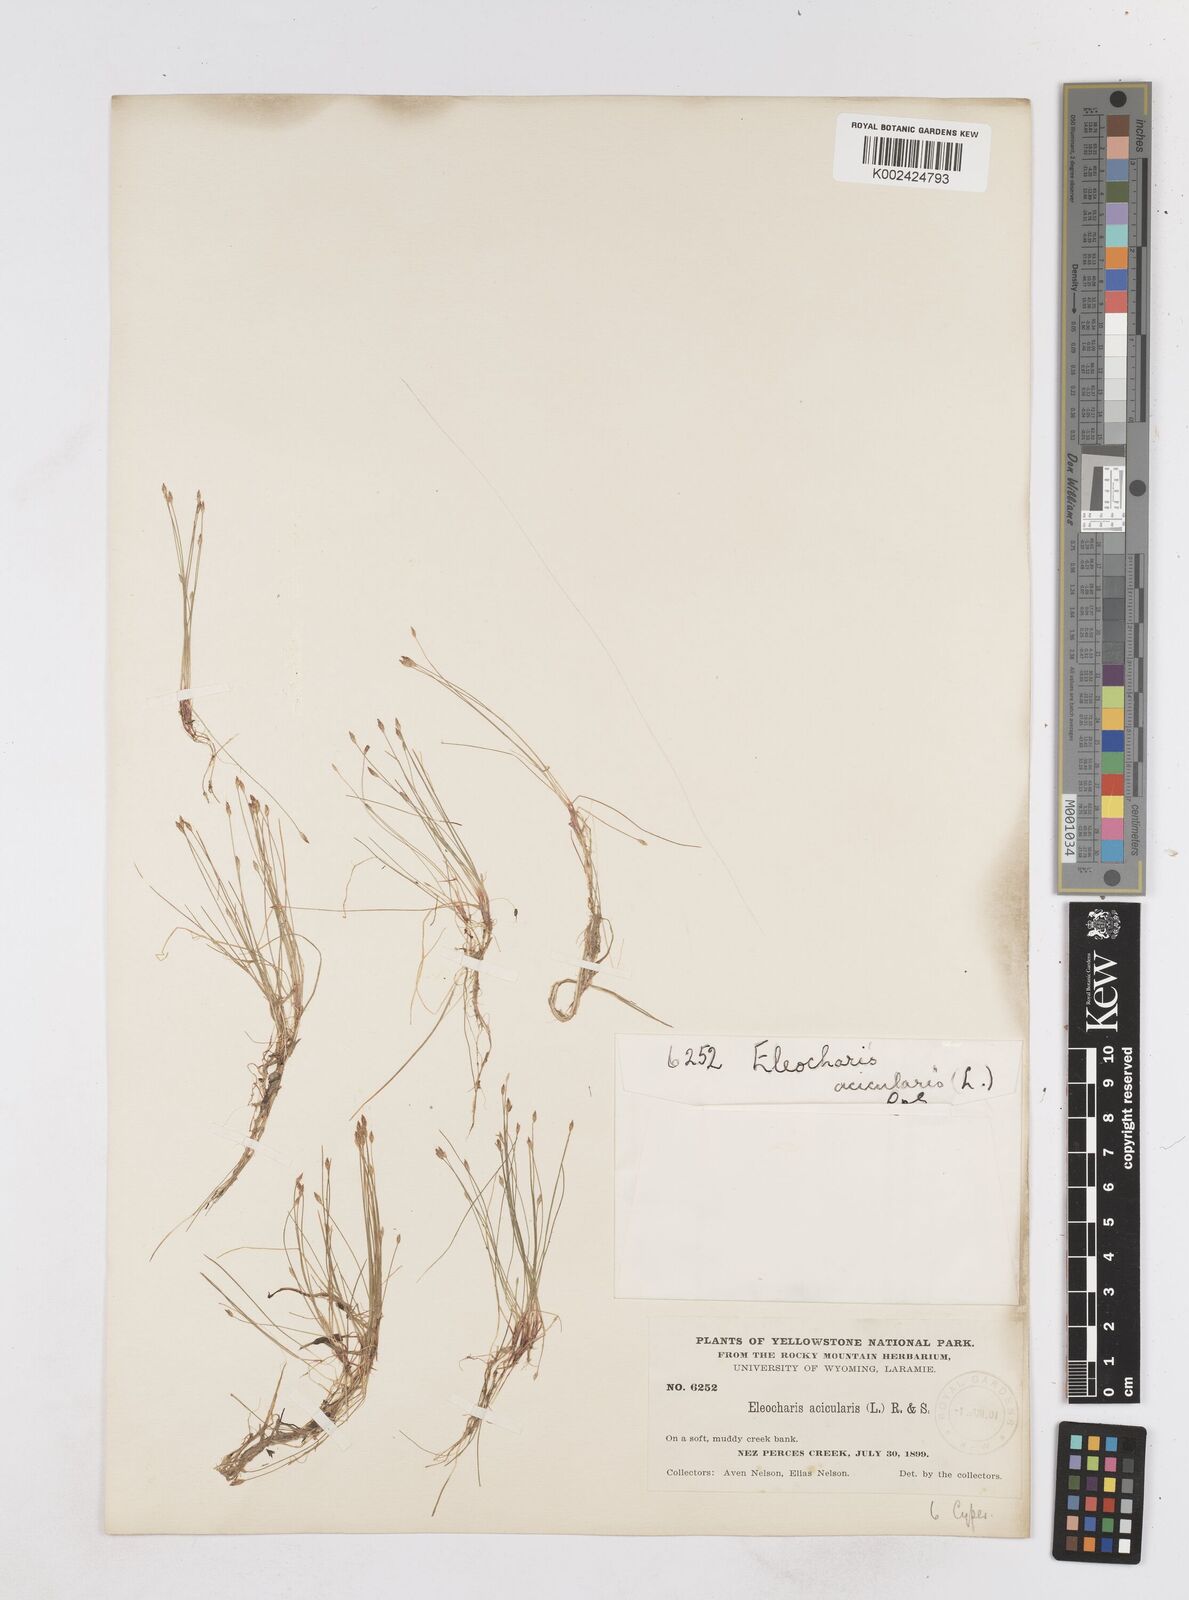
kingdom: Plantae
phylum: Tracheophyta
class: Liliopsida
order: Poales
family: Cyperaceae
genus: Eleocharis
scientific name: Eleocharis acicularis
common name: Needle spike-rush
